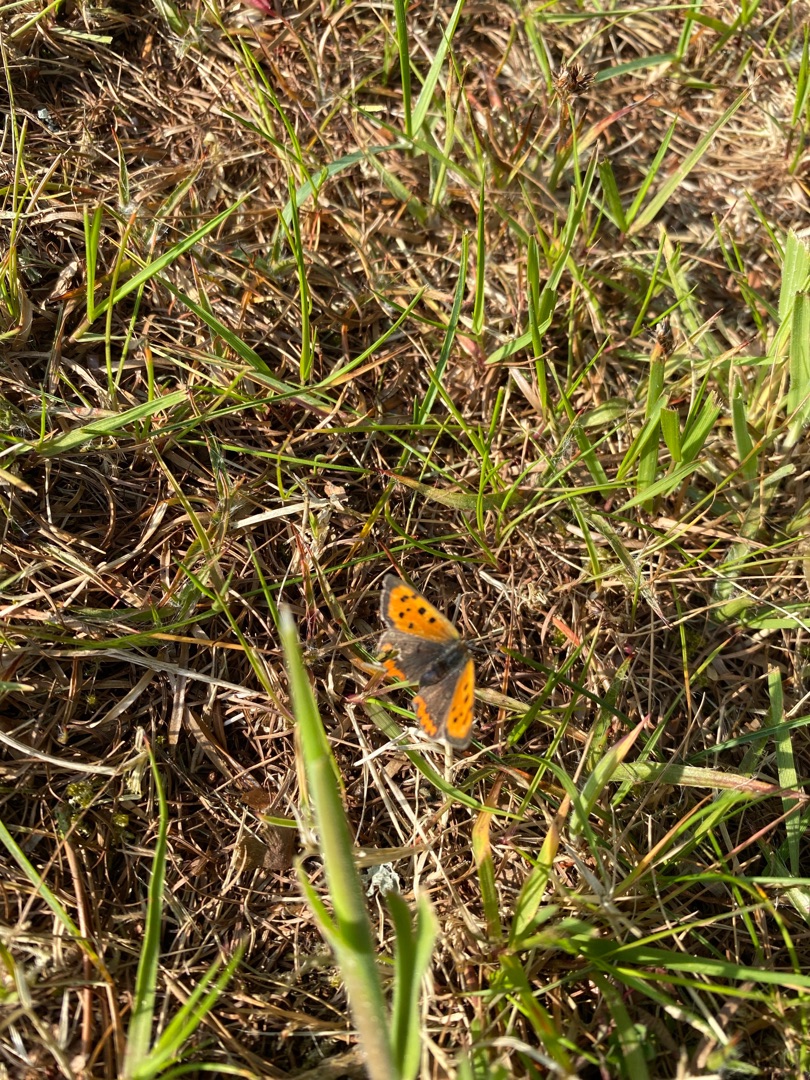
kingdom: Animalia
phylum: Arthropoda
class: Insecta
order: Lepidoptera
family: Lycaenidae
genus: Lycaena
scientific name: Lycaena phlaeas
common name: Lille ildfugl
